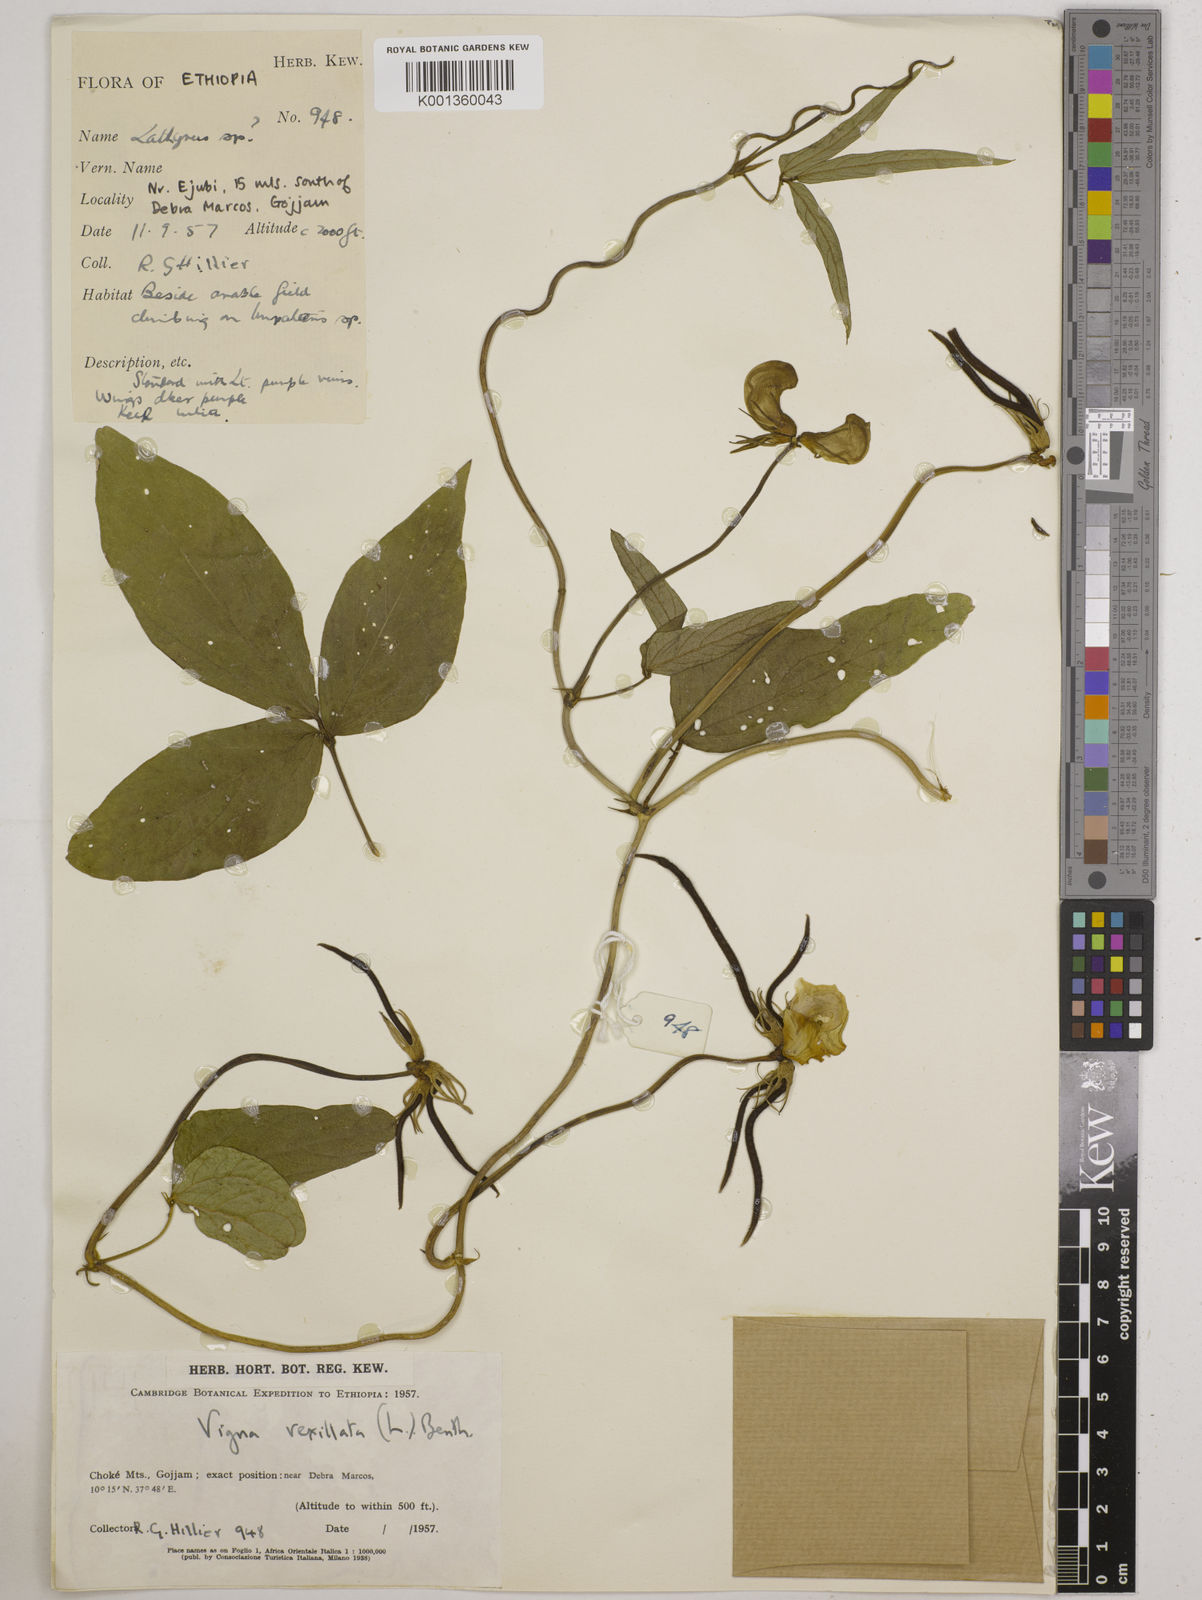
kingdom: Plantae
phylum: Tracheophyta
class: Magnoliopsida
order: Fabales
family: Fabaceae
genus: Vigna
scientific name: Vigna vexillata
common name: Zombi pea
